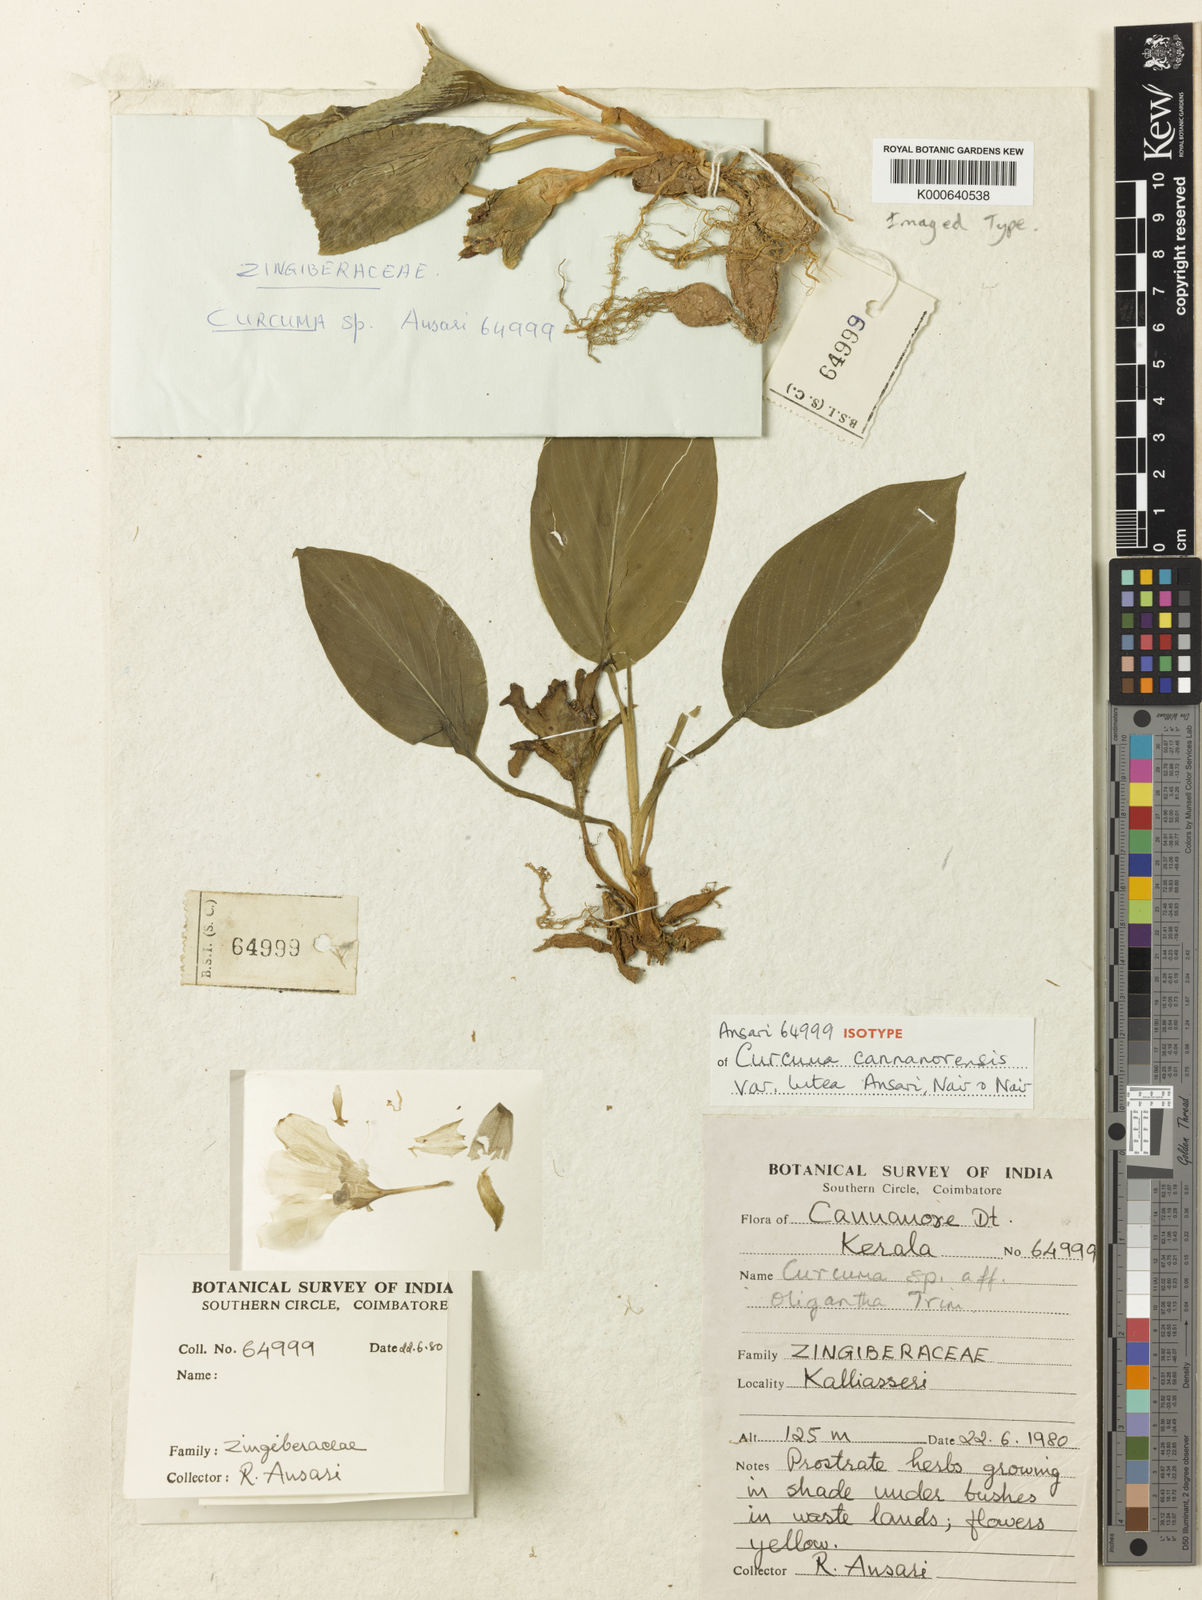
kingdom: Plantae
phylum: Tracheophyta
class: Liliopsida
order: Zingiberales
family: Zingiberaceae
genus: Curcuma
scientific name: Curcuma
